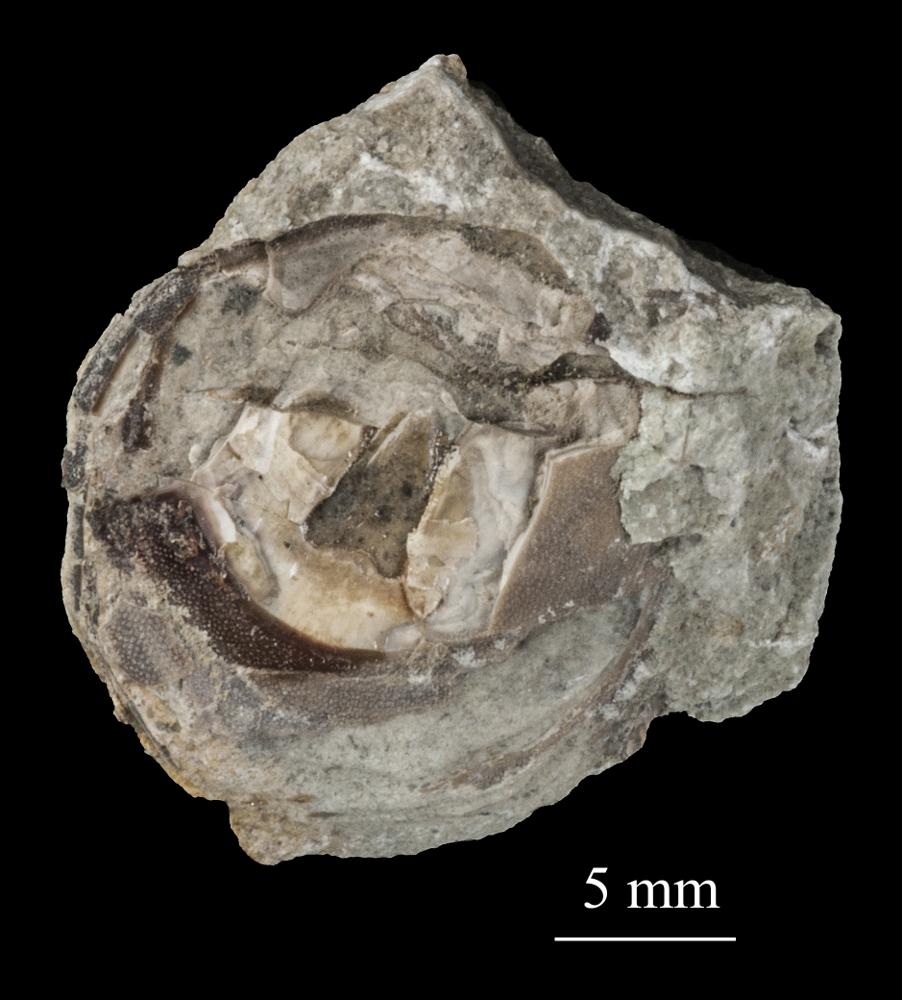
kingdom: Animalia
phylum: Brachiopoda
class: Lingulata
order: Siphonotretida
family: Siphonotretidae
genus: Siphonotreta
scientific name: Siphonotreta
